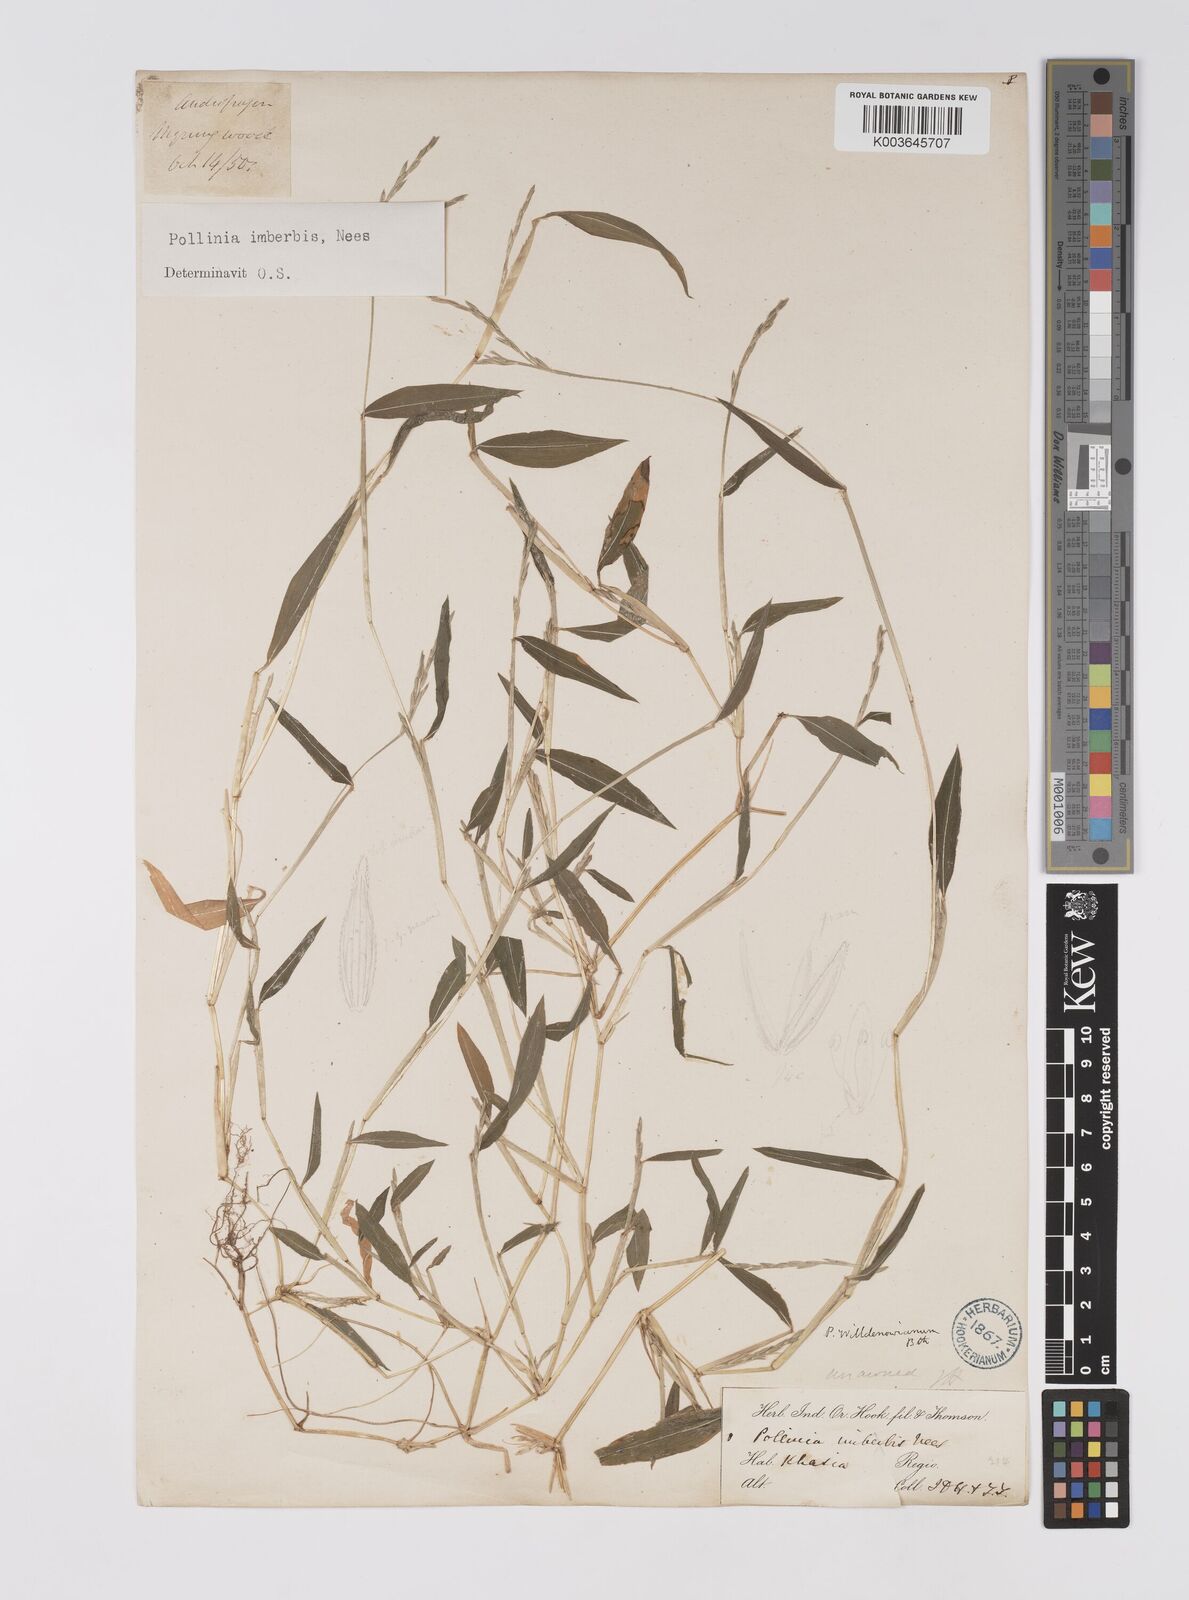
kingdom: Plantae
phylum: Tracheophyta
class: Liliopsida
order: Poales
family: Poaceae
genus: Microstegium
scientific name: Microstegium vimineum
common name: Japanese stiltgrass
